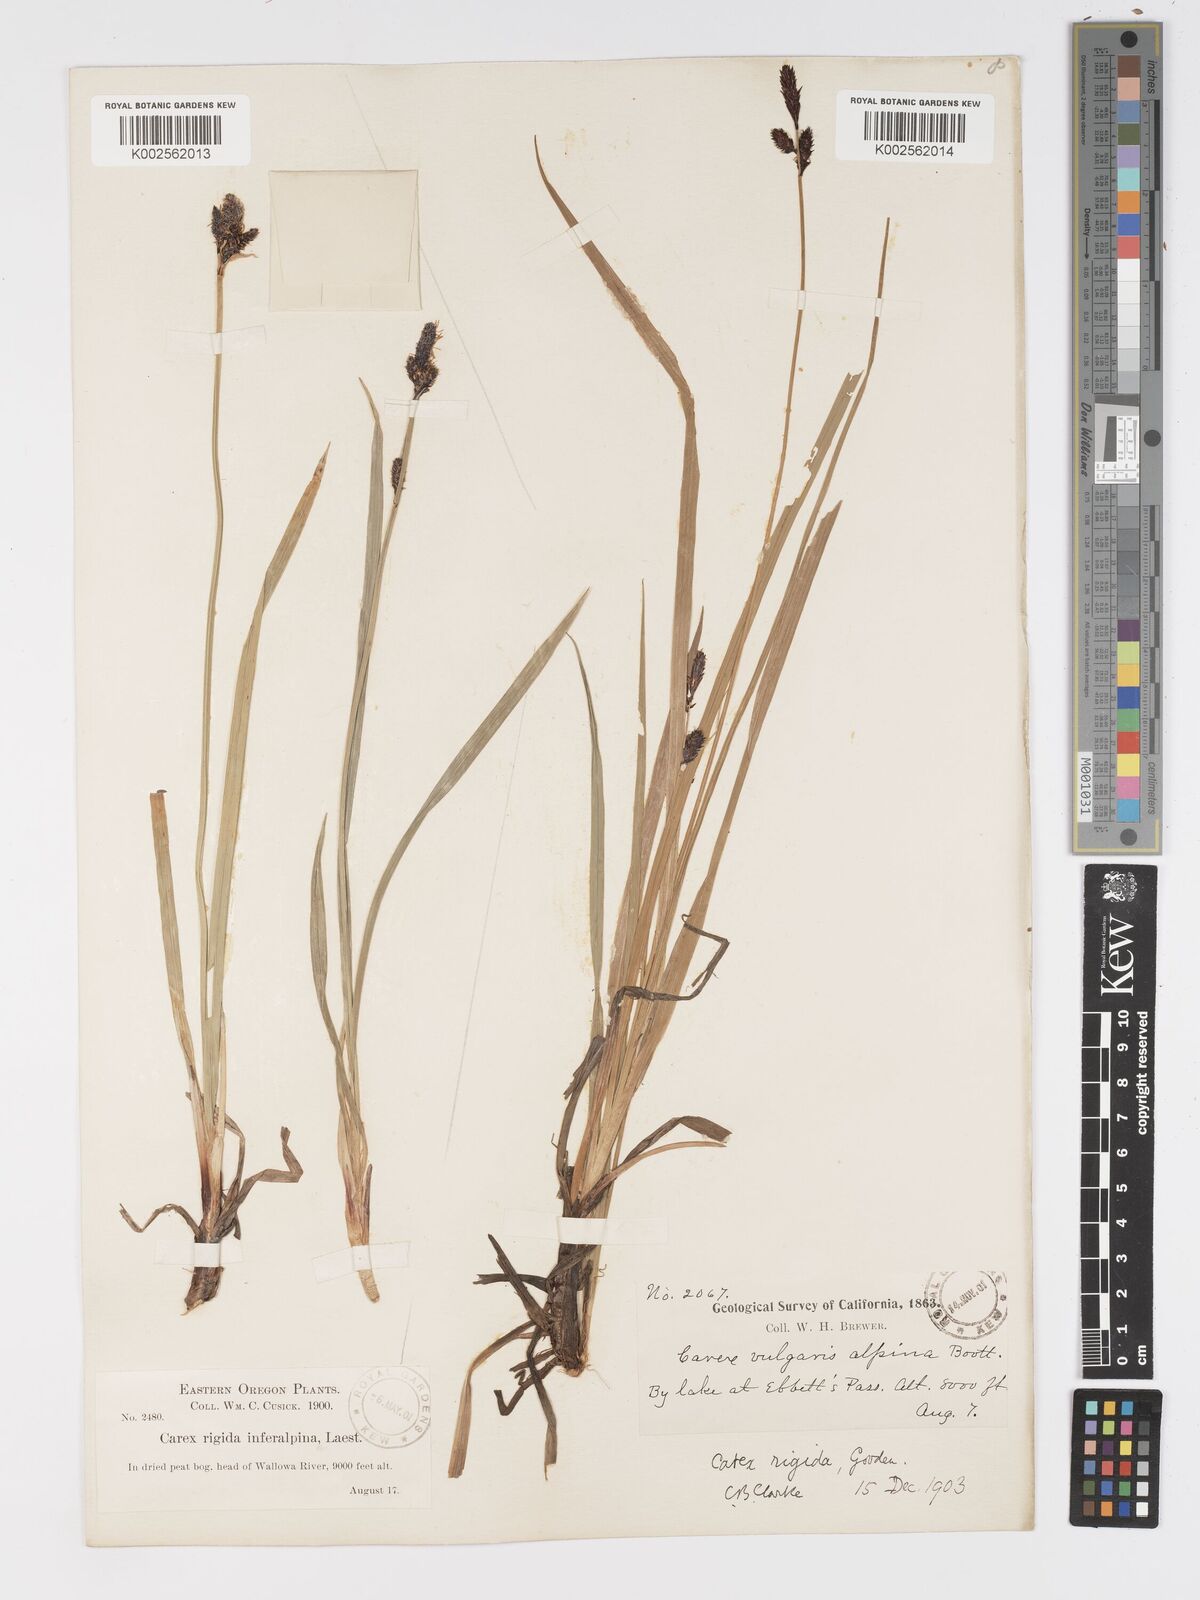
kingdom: Plantae
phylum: Tracheophyta
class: Liliopsida
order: Poales
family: Cyperaceae
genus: Carex
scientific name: Carex bigelowii
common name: Stiff sedge
